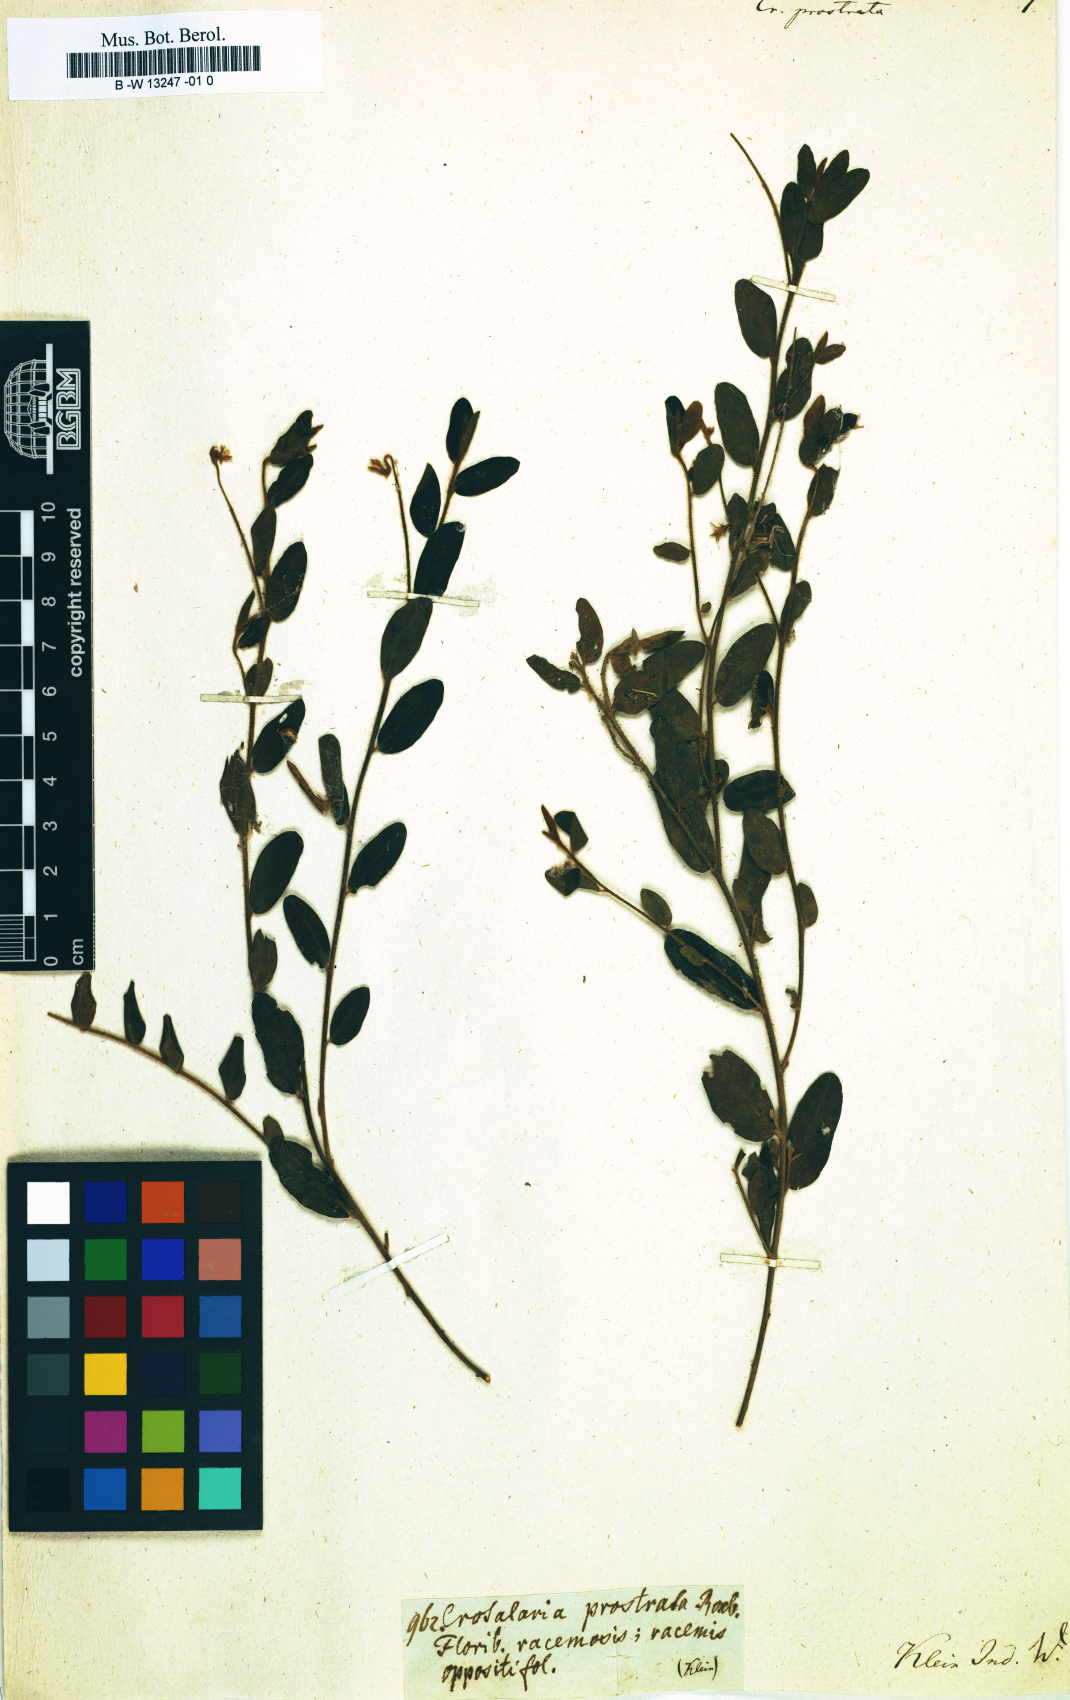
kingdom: Plantae
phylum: Tracheophyta
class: Magnoliopsida
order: Fabales
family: Fabaceae
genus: Crotalaria
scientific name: Crotalaria prostrata
